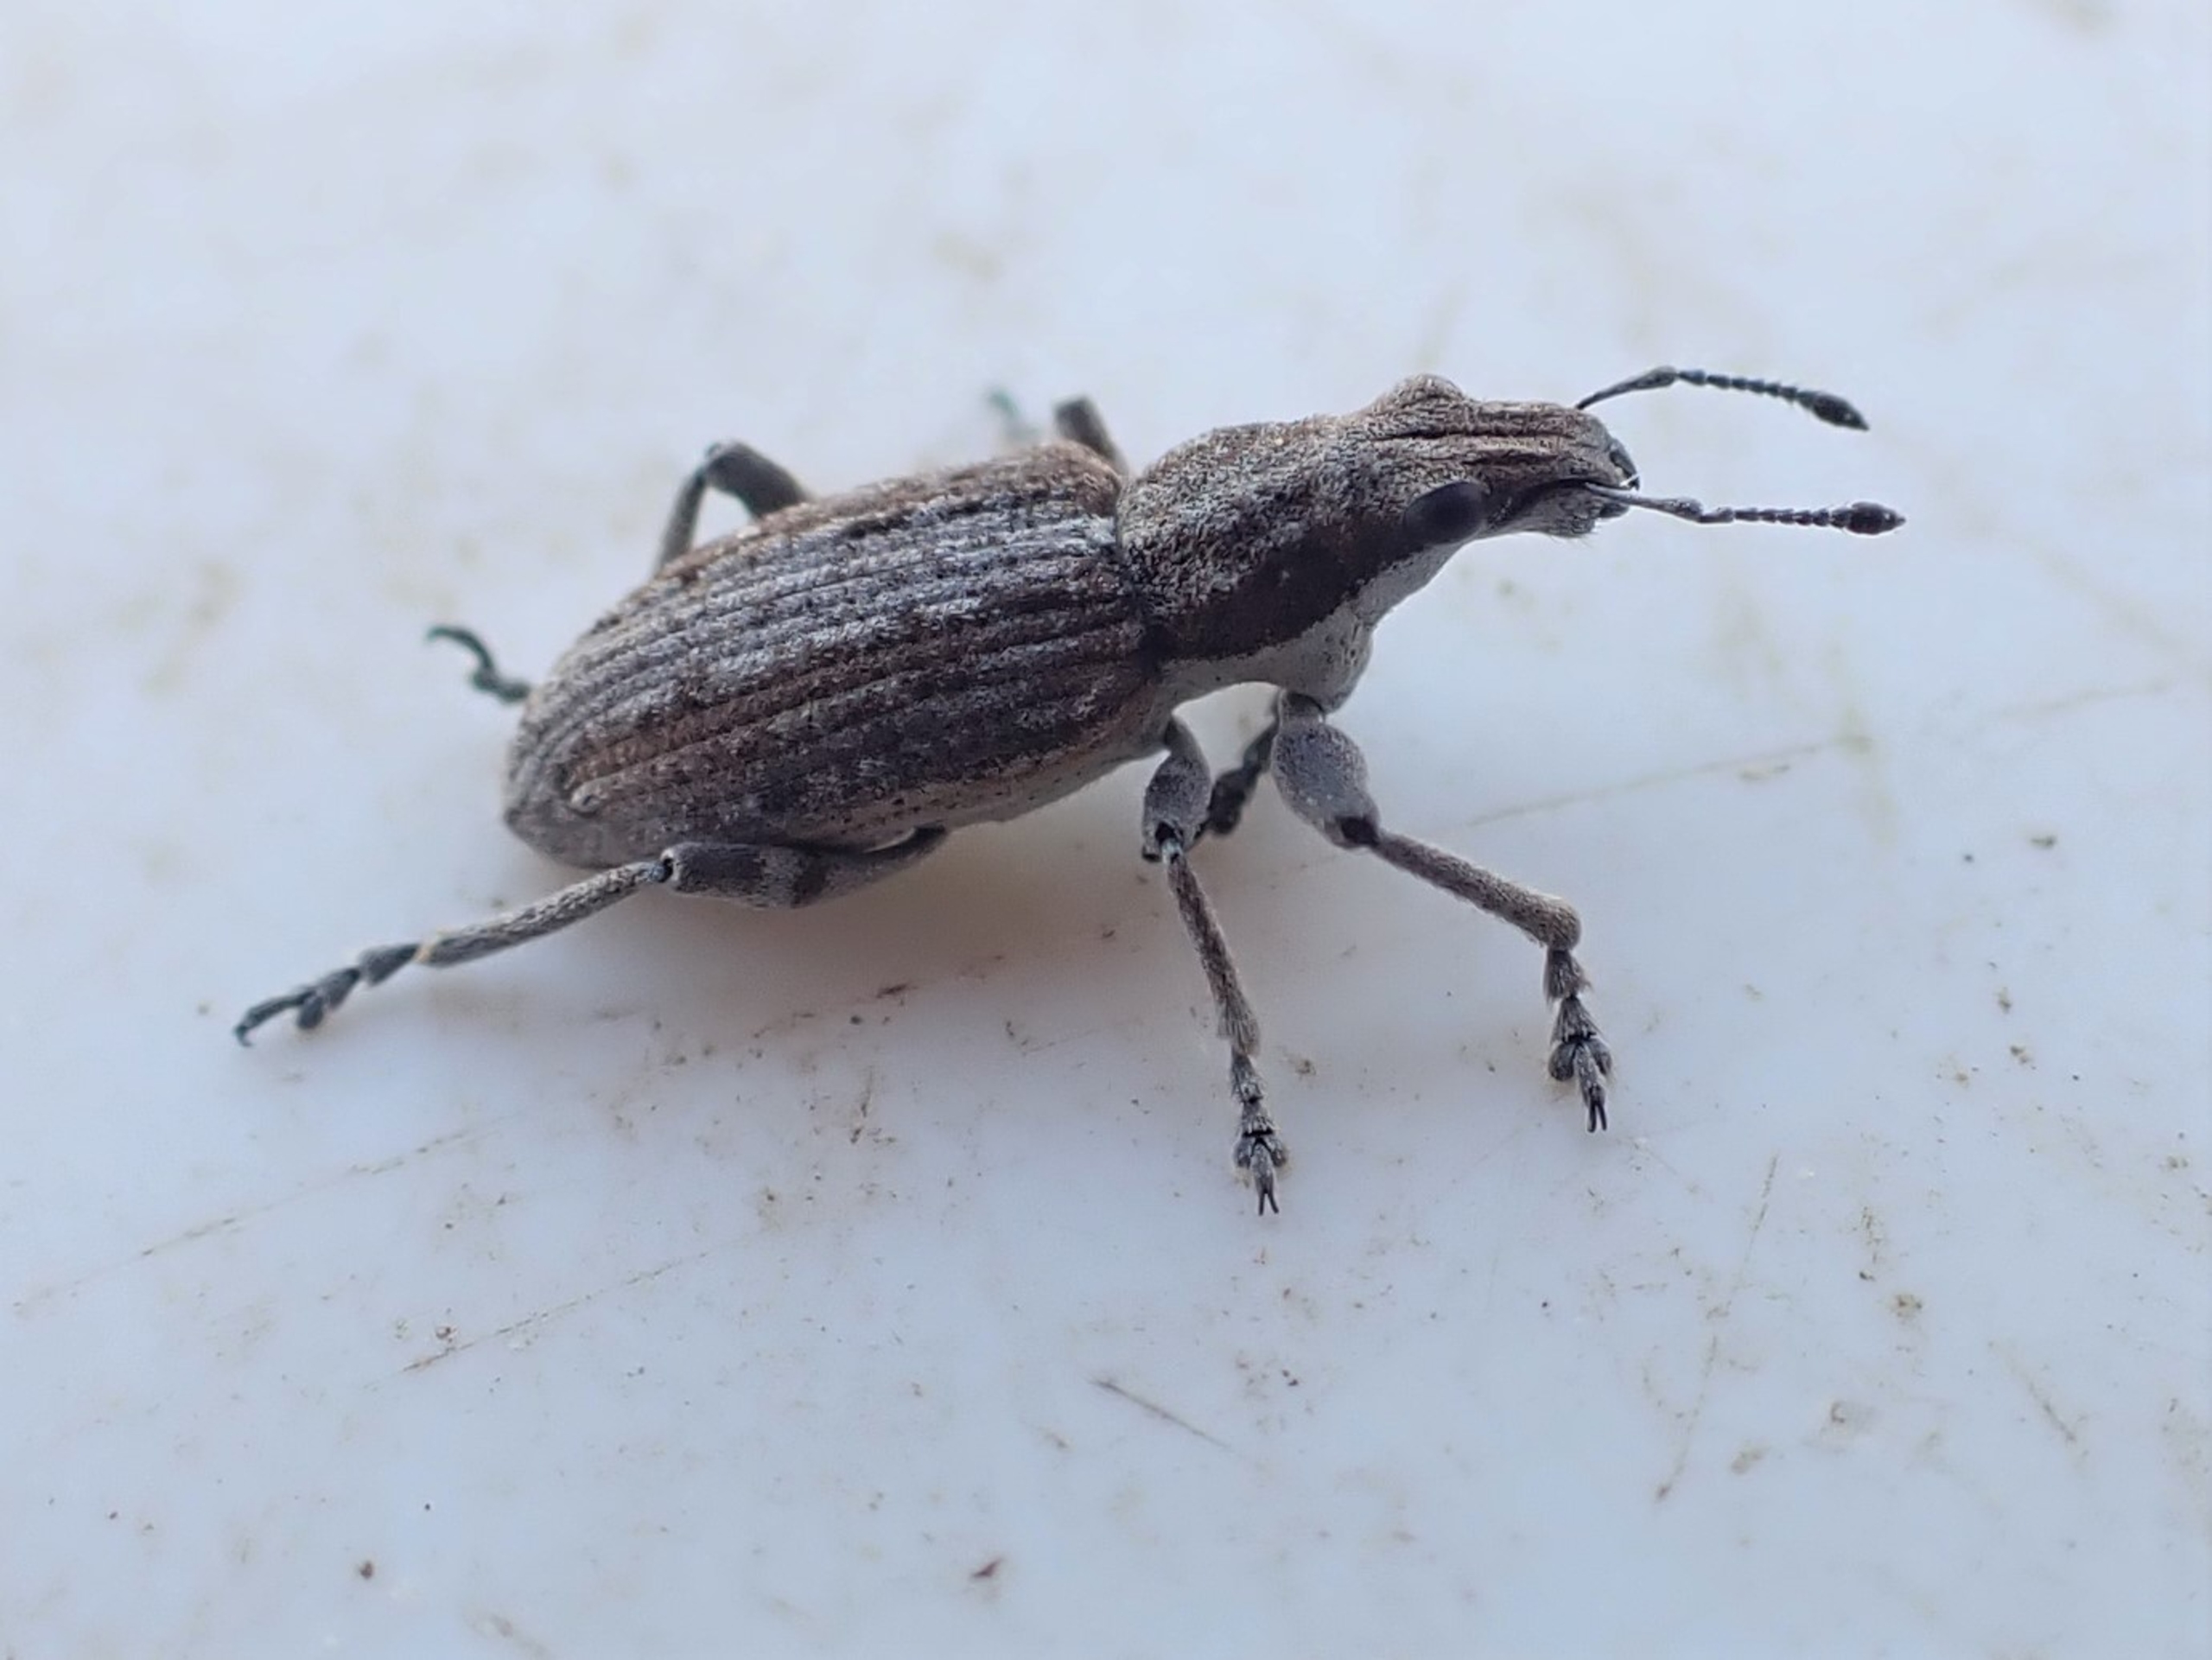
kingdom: Animalia
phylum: Arthropoda
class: Insecta
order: Coleoptera
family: Curculionidae
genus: Charagmus
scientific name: Charagmus griseus
